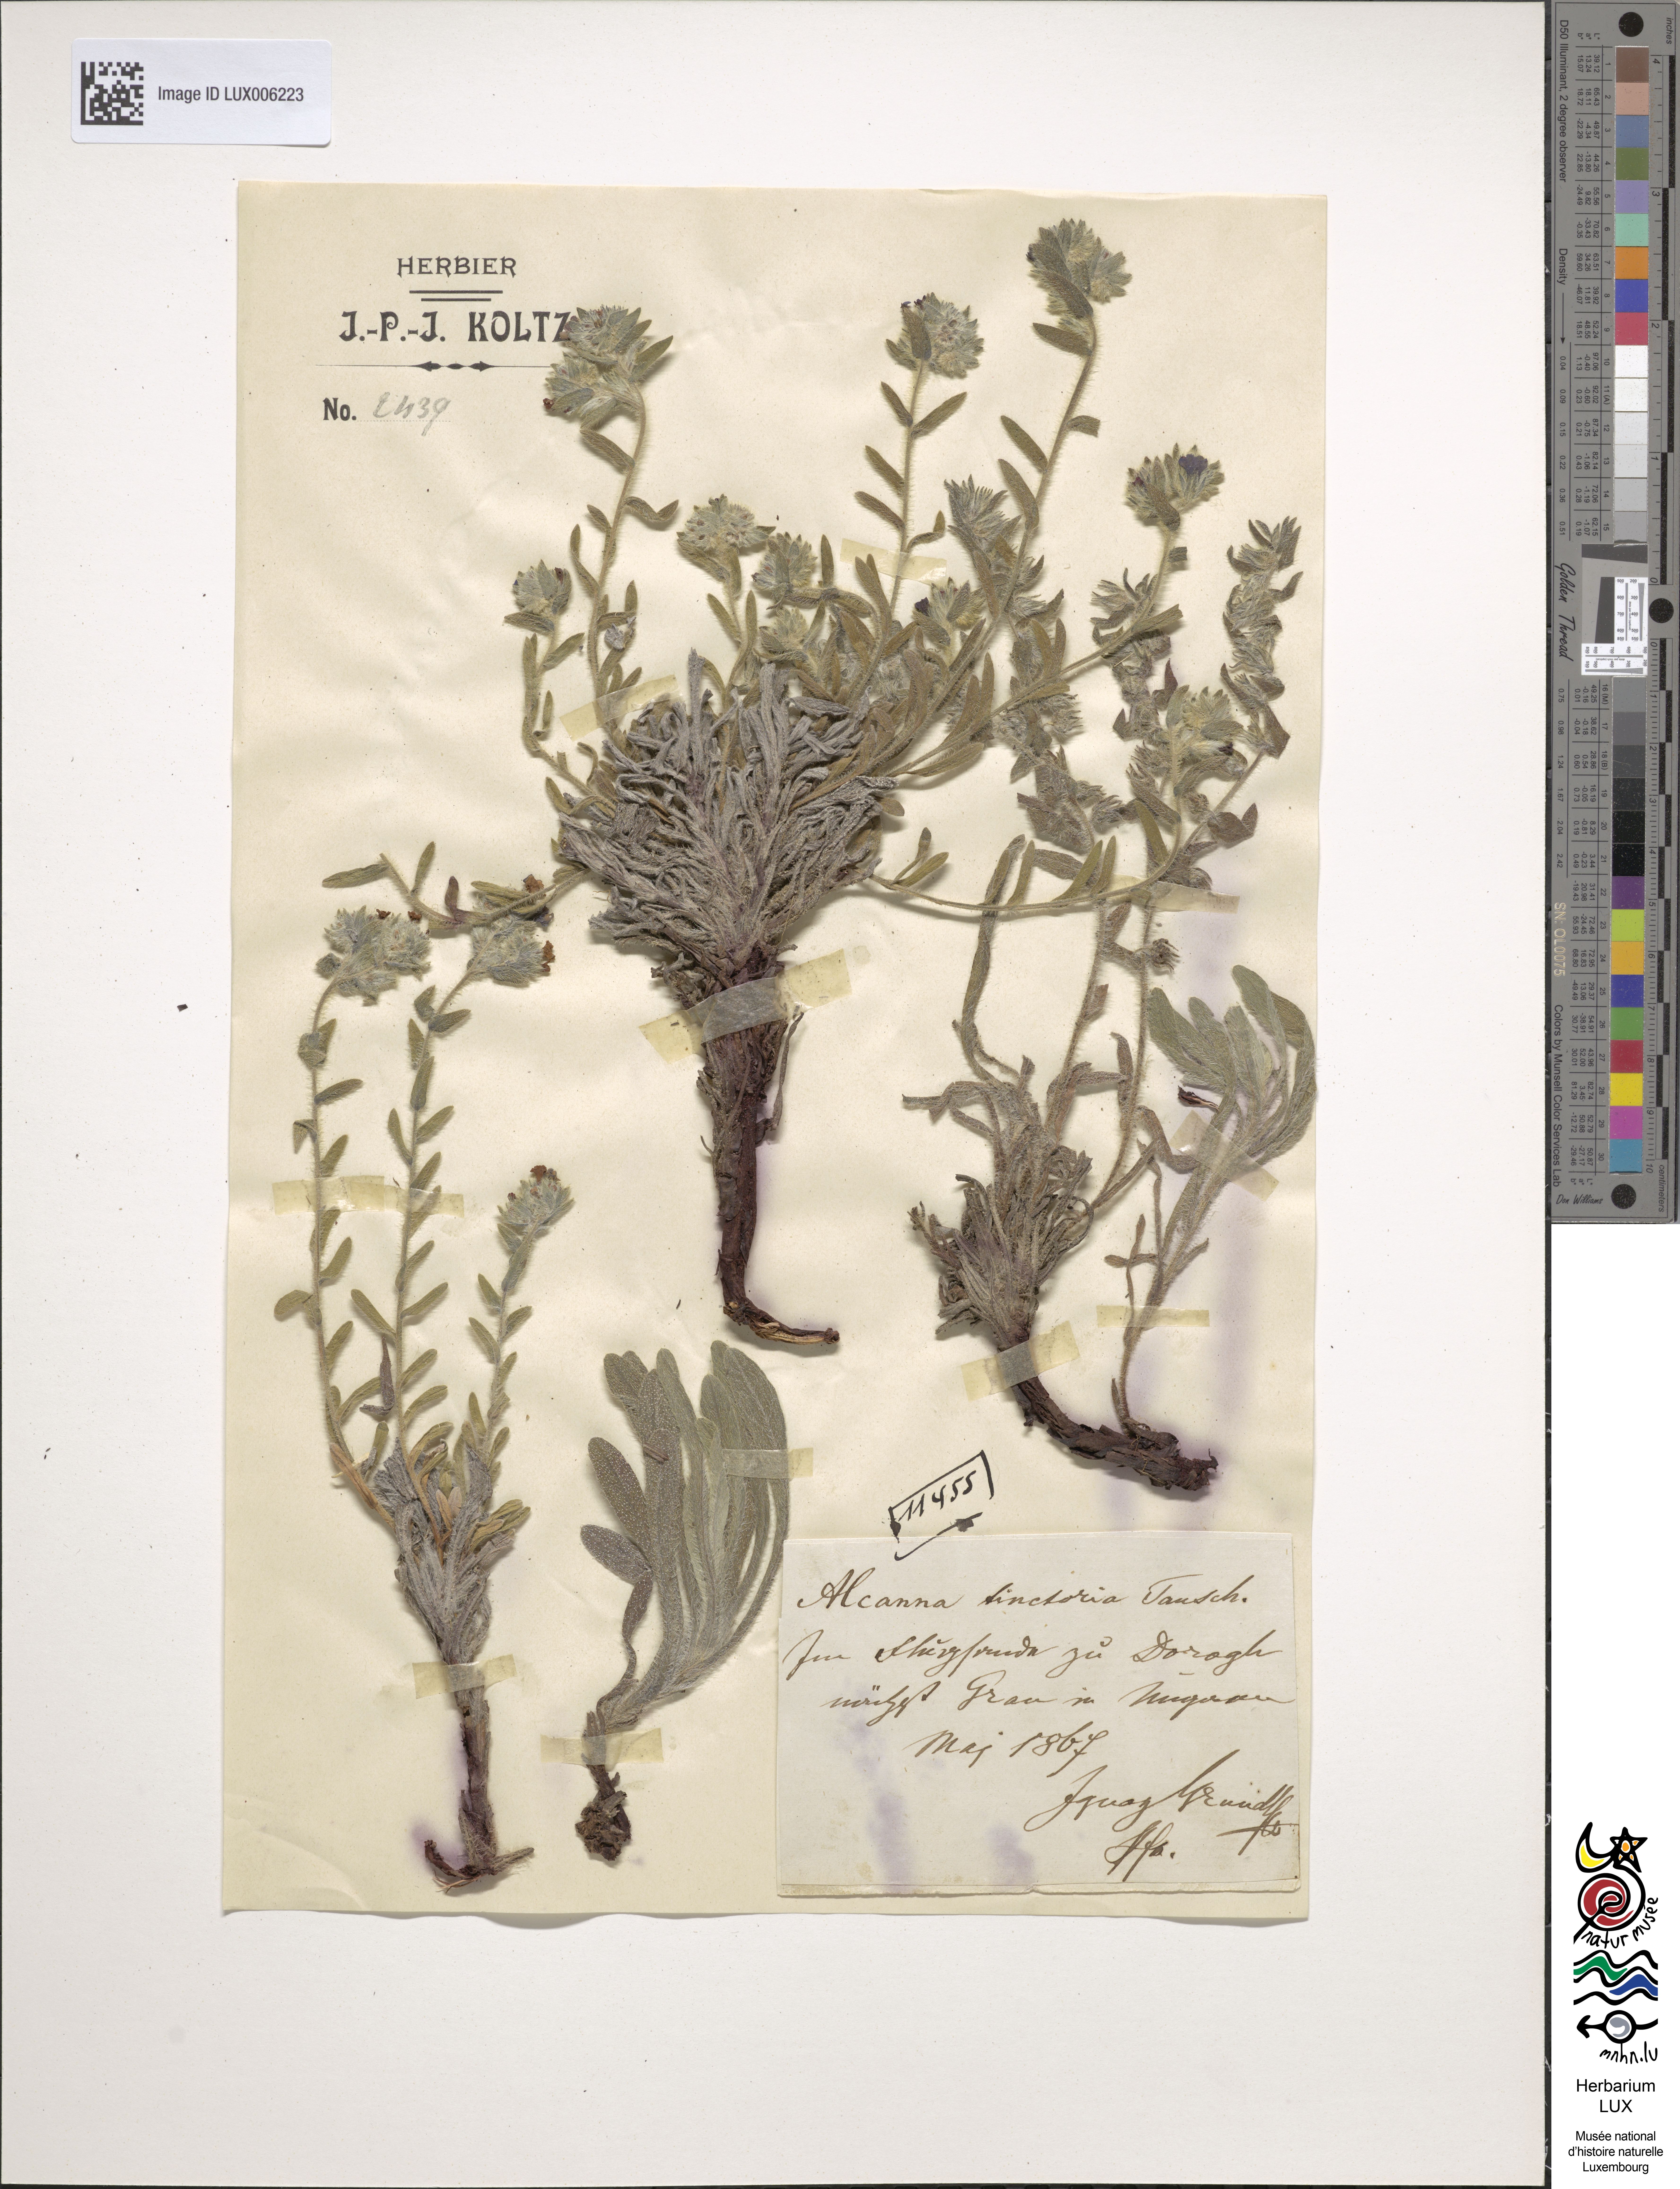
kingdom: Plantae
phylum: Tracheophyta
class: Magnoliopsida
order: Boraginales
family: Boraginaceae
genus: Alkanna
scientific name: Alkanna tinctoria
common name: Dyer's-alkanet
